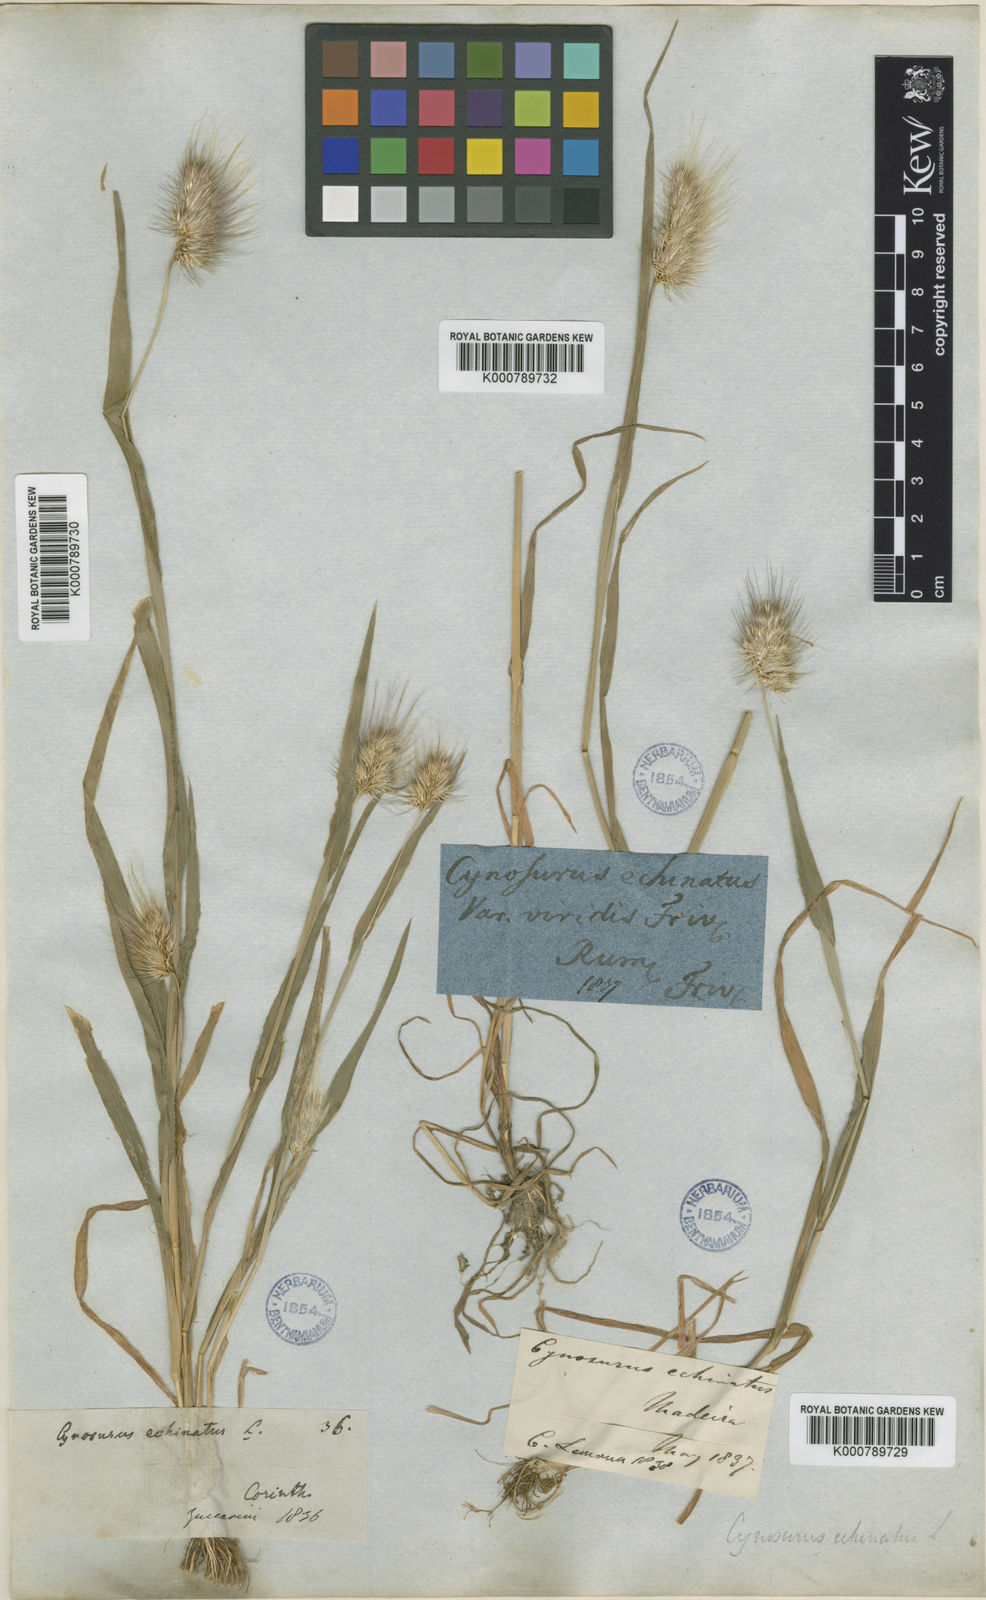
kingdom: Plantae
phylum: Tracheophyta
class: Liliopsida
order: Poales
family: Poaceae
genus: Cynosurus
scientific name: Cynosurus echinatus
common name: Rough dog's-tail
